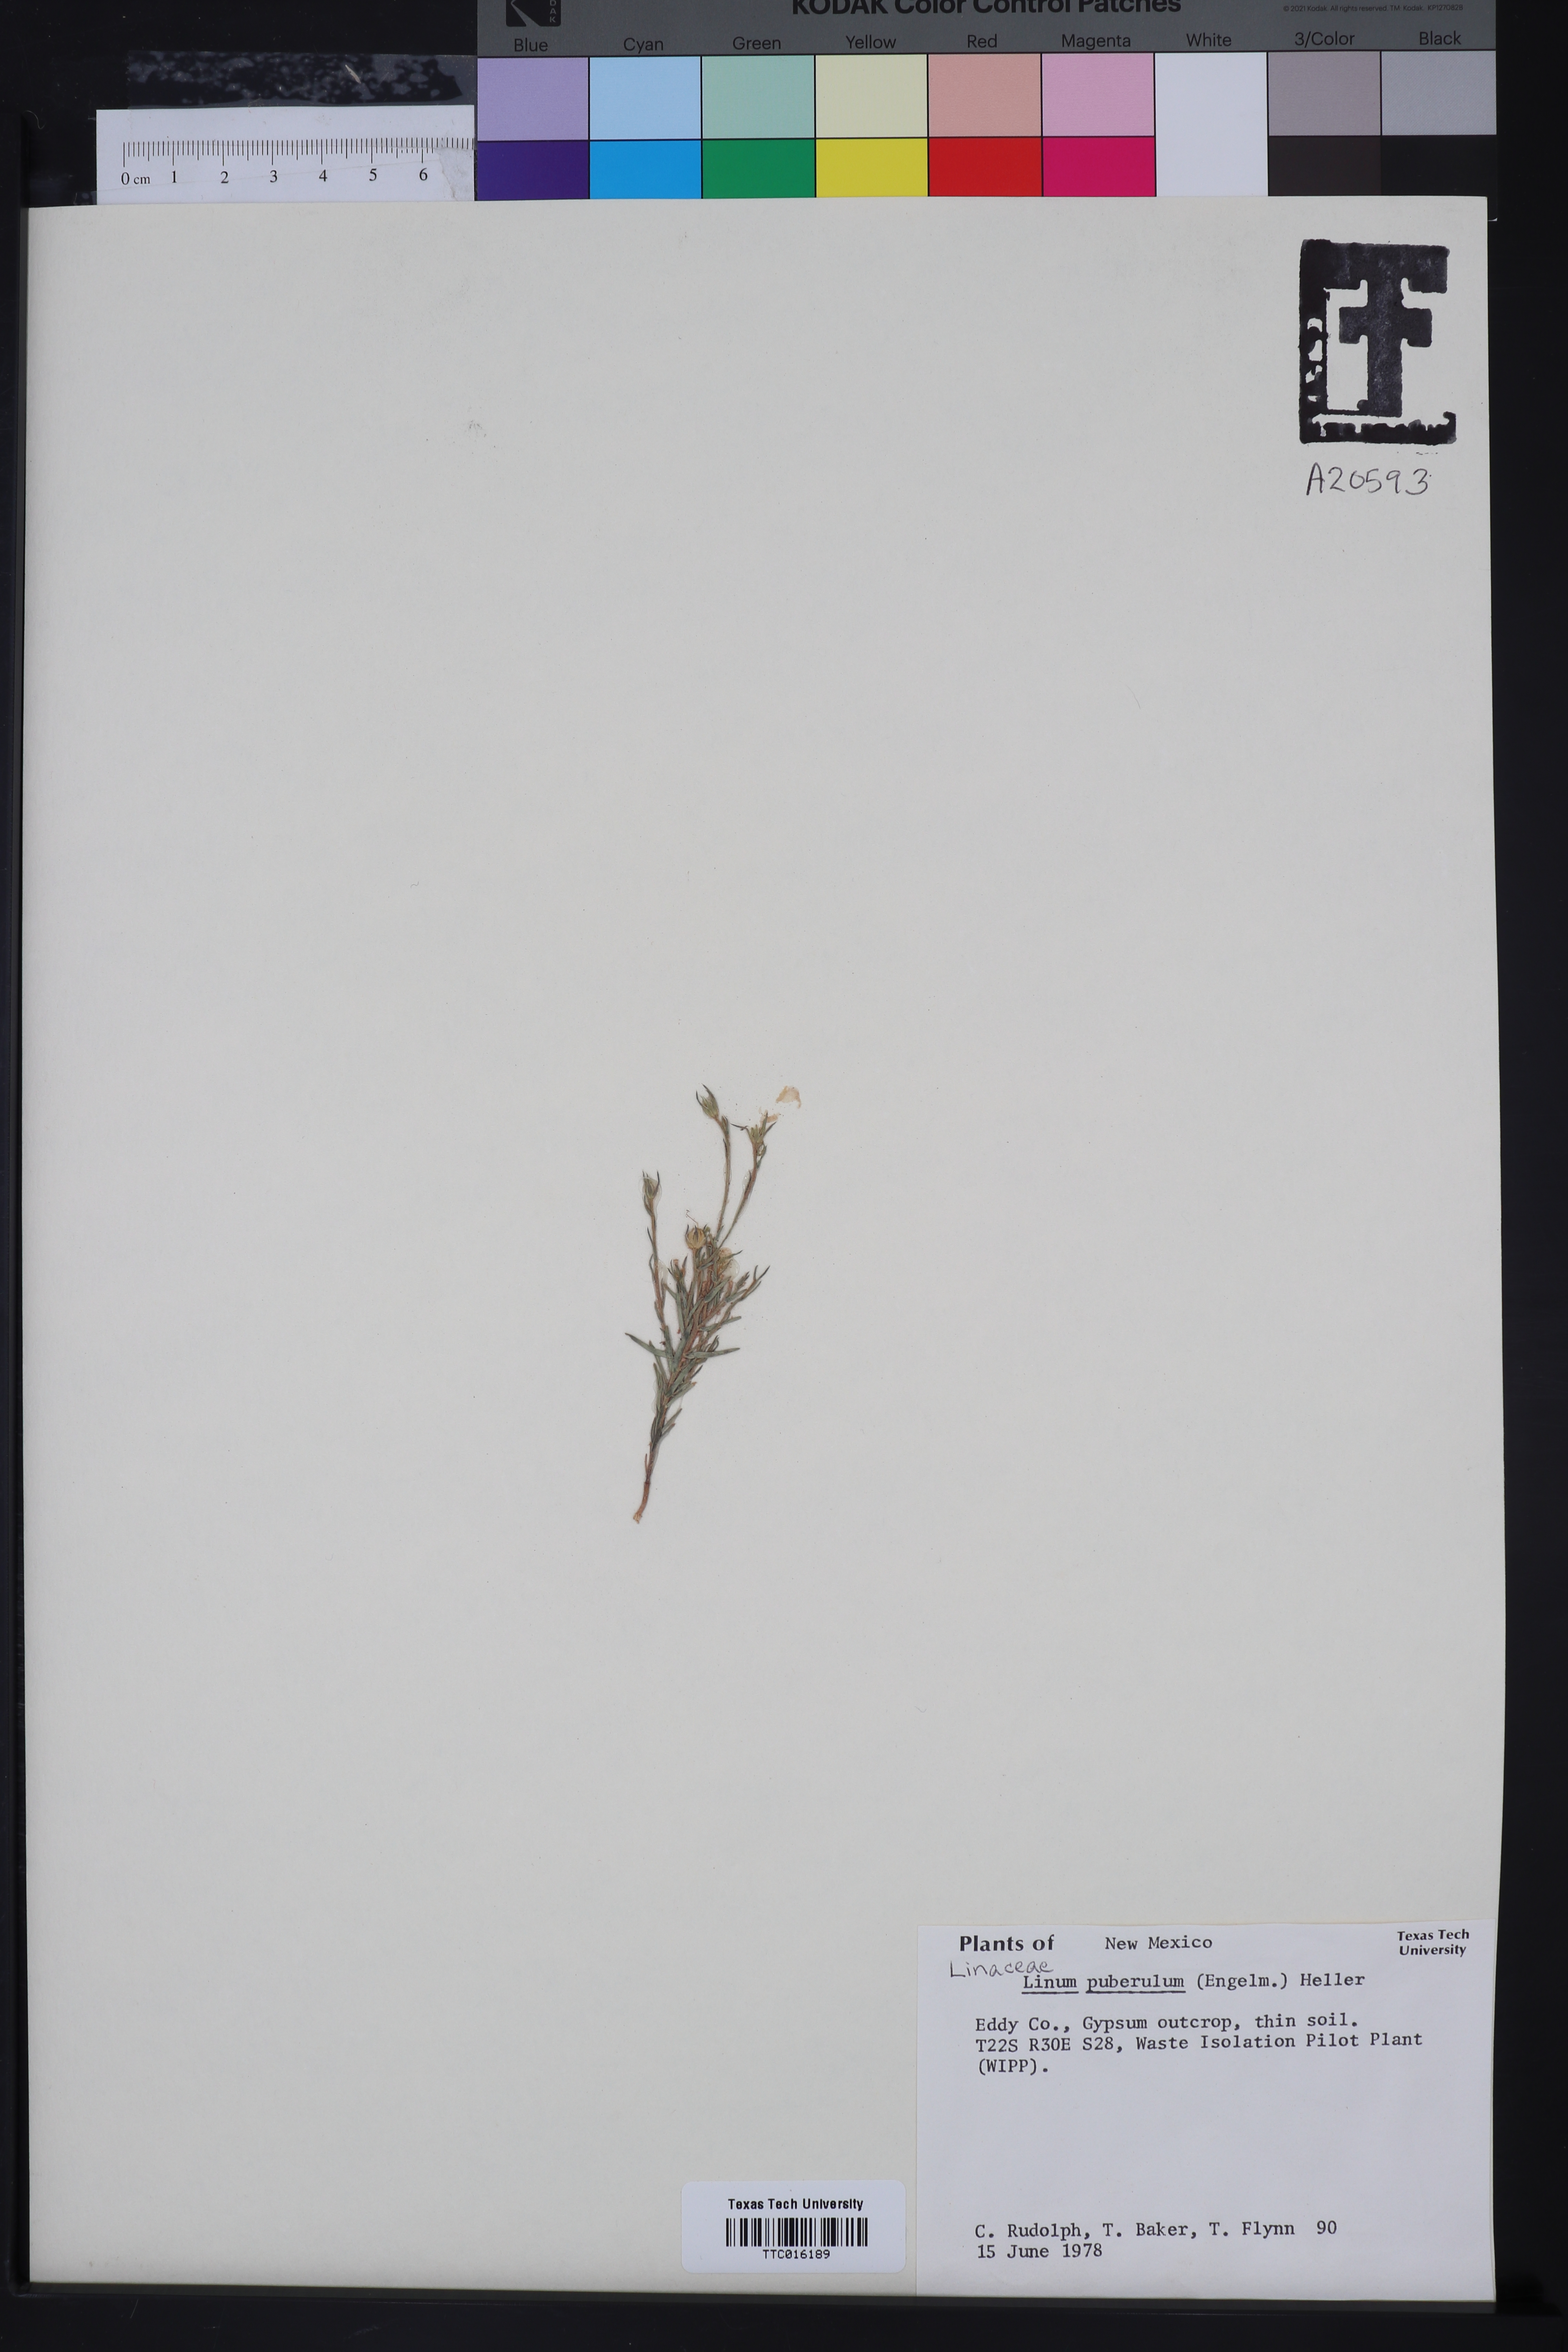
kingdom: Plantae
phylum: Tracheophyta
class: Magnoliopsida
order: Malpighiales
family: Linaceae
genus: Linum
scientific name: Linum puberulum
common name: Plains flax
